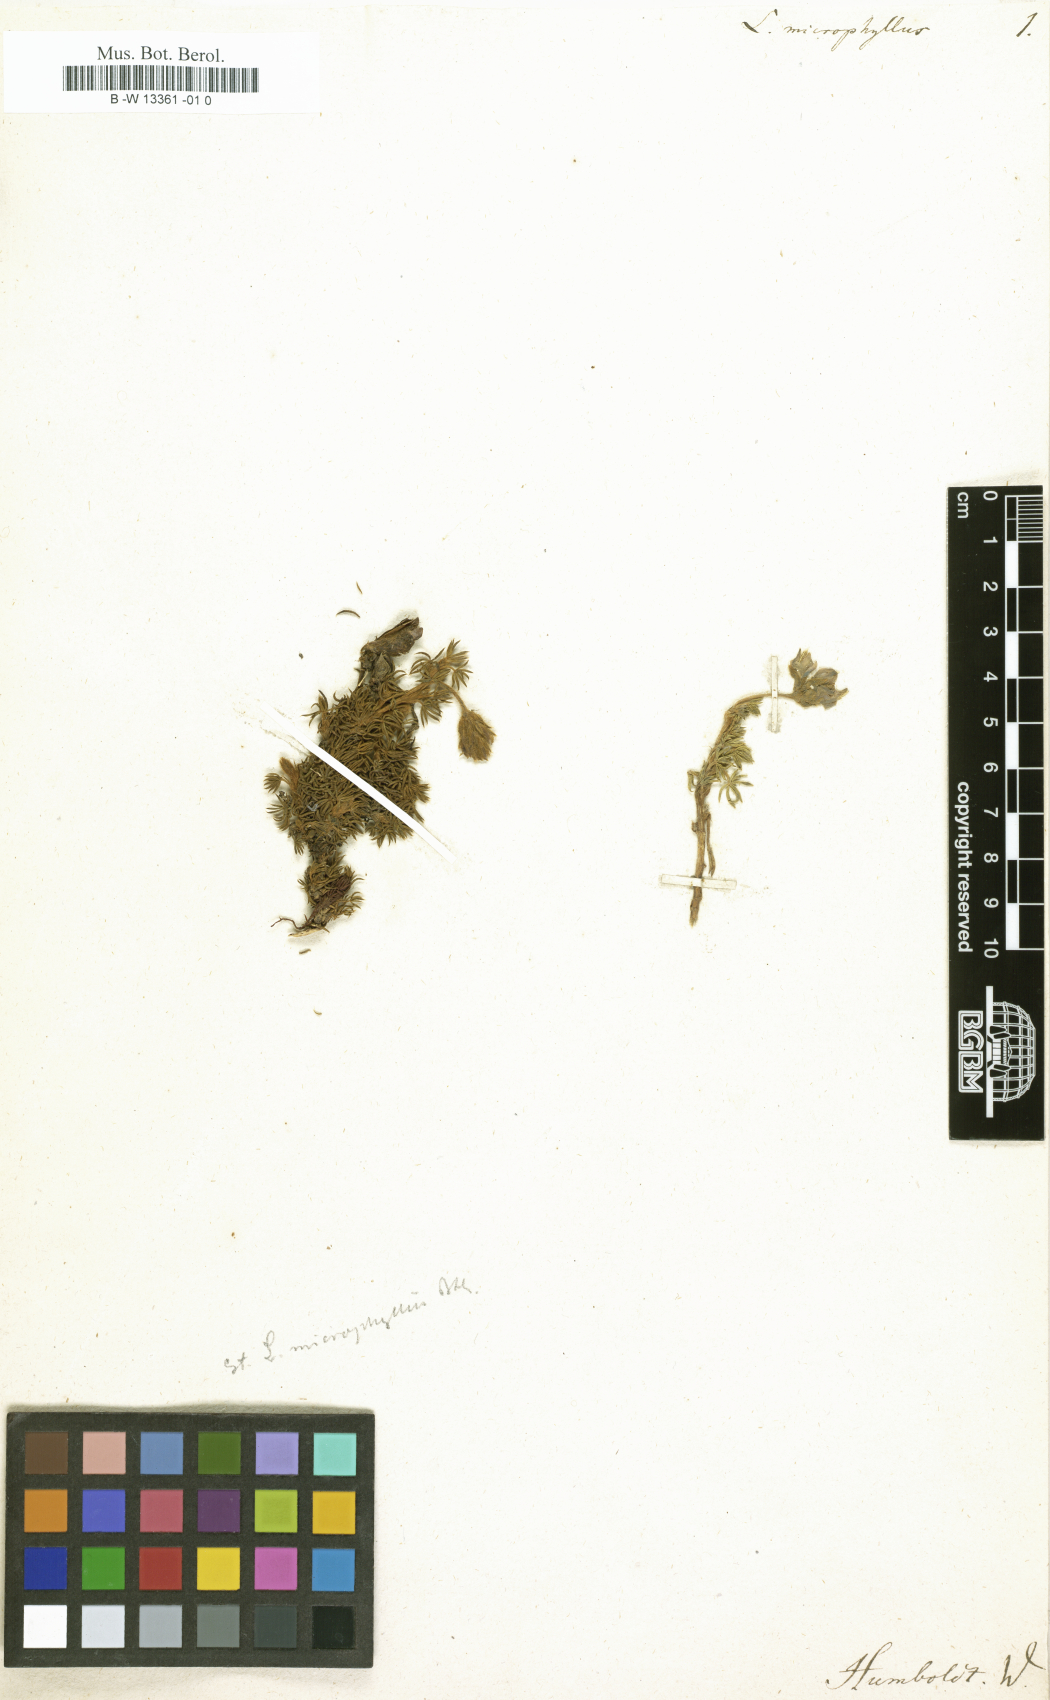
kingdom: Plantae
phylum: Tracheophyta
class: Magnoliopsida
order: Fabales
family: Fabaceae
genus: Lupinus
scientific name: Lupinus microphyllus
